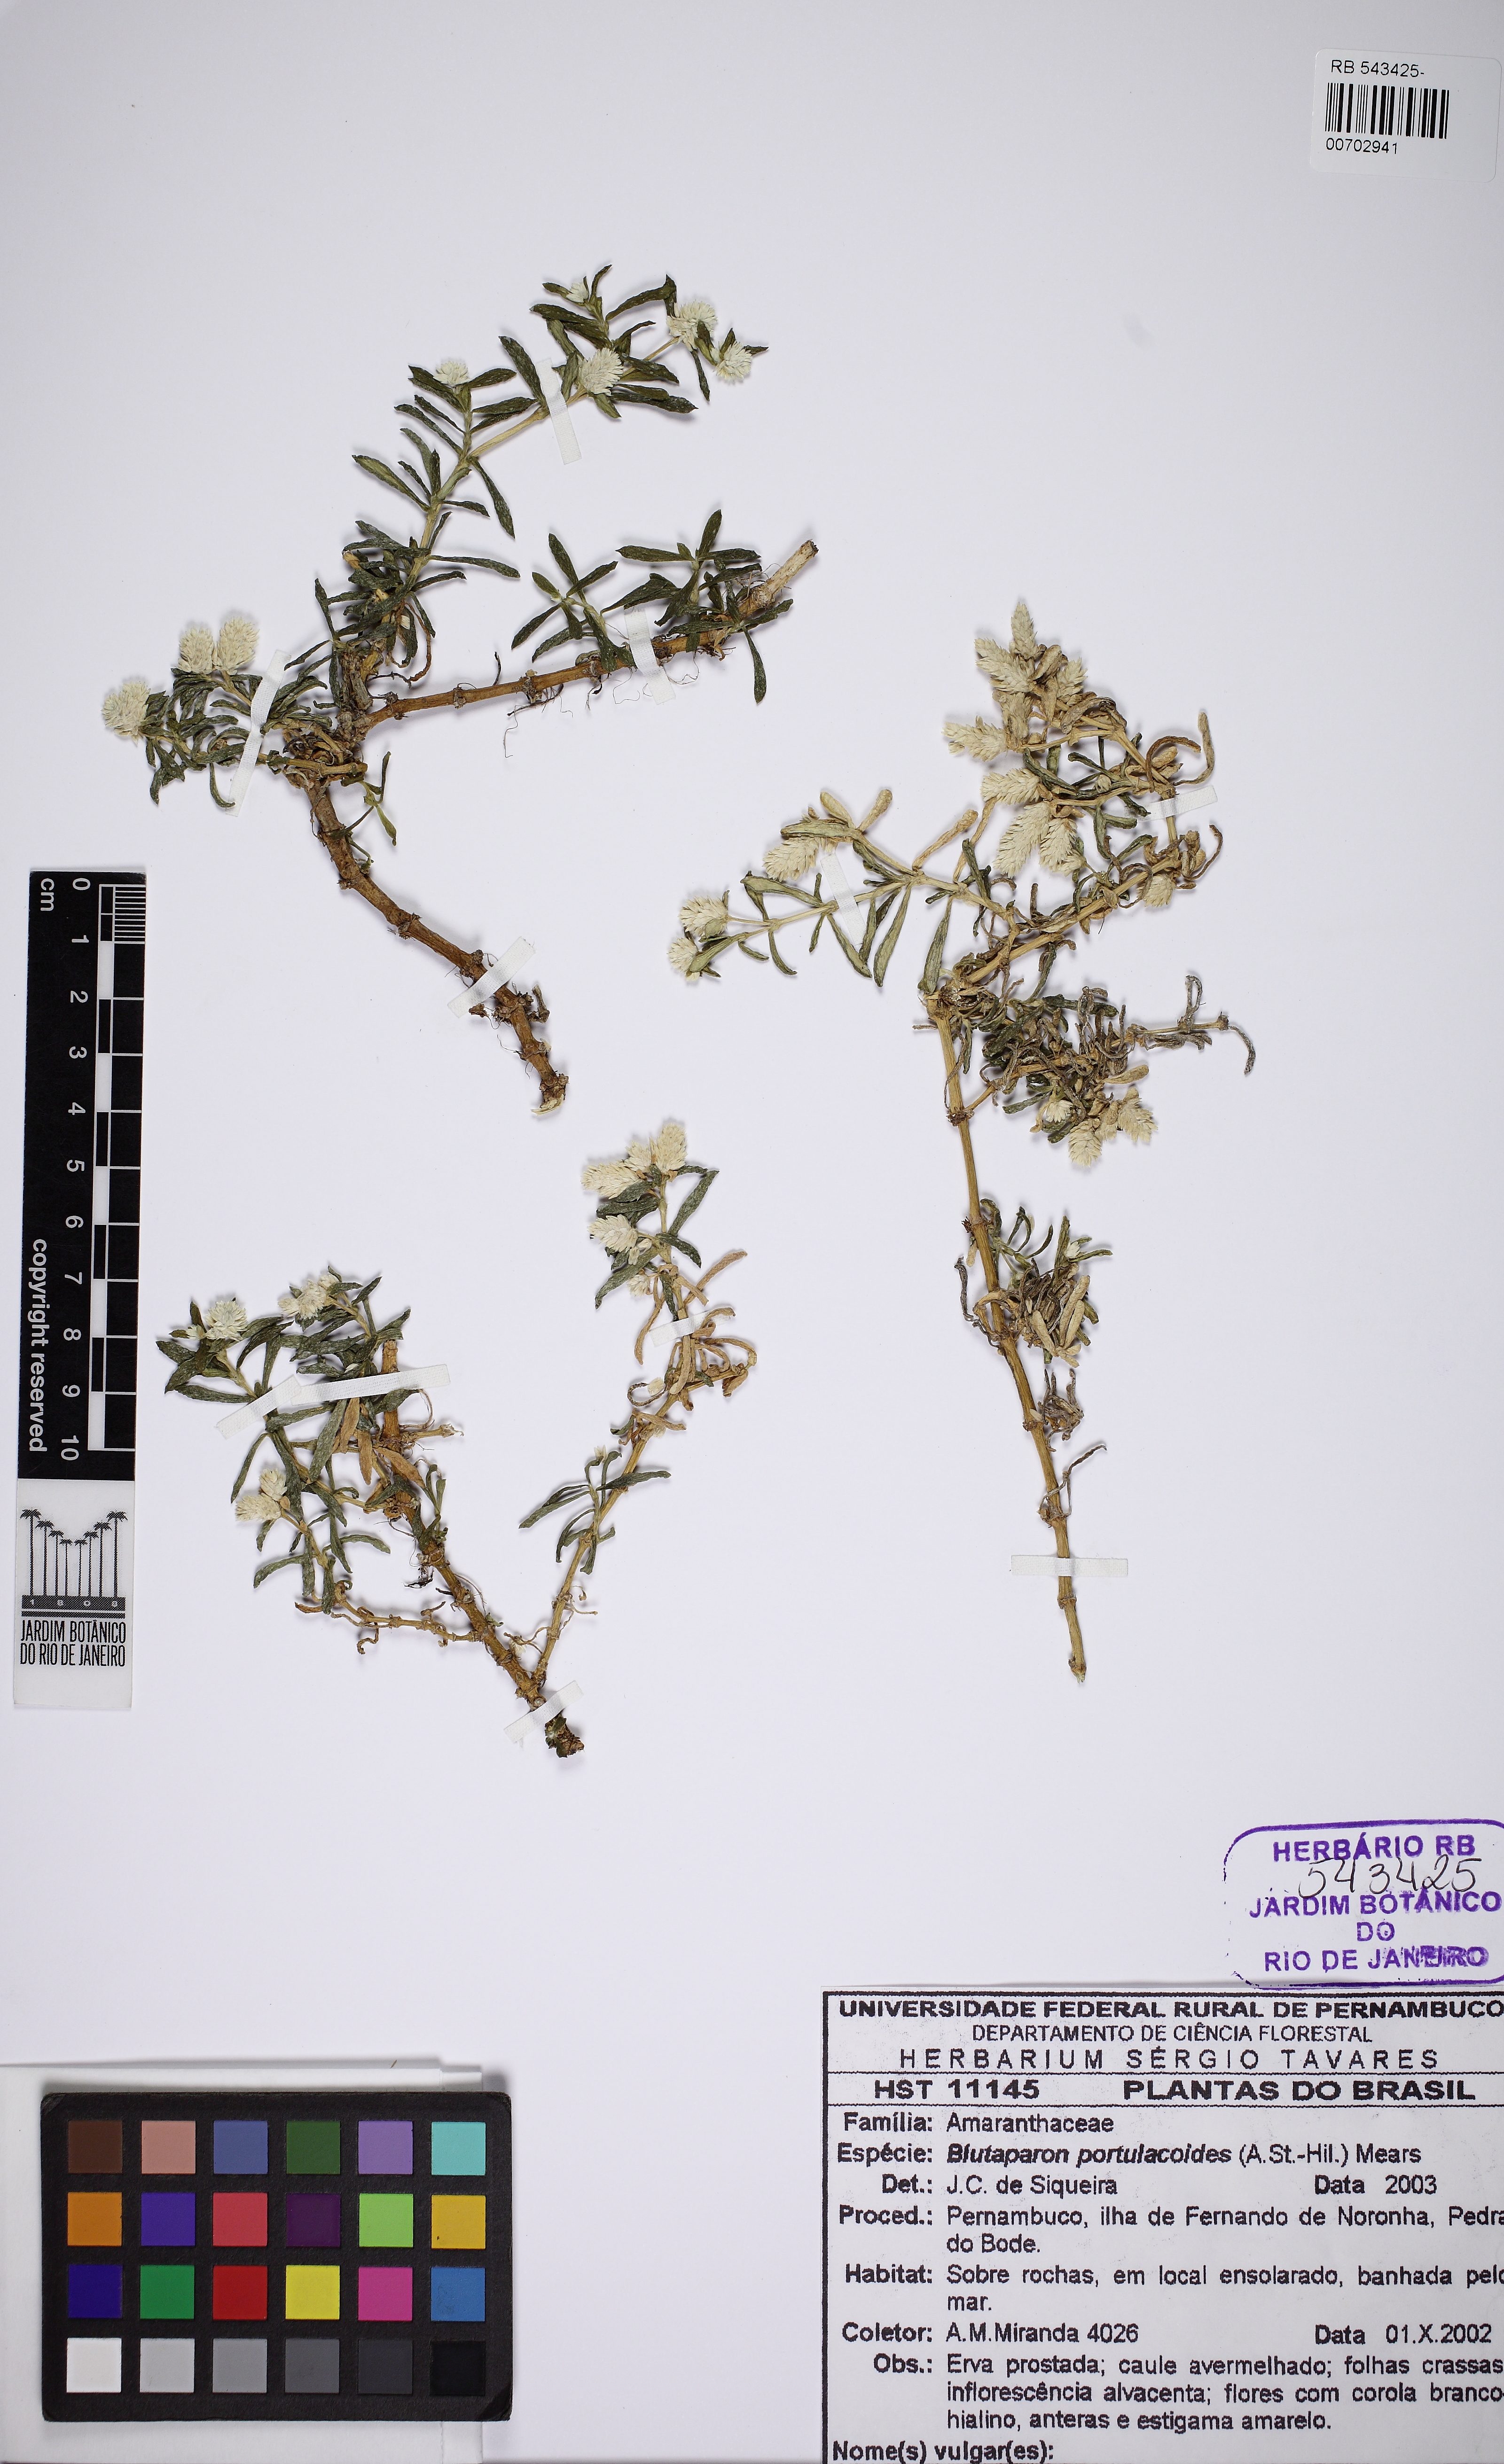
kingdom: Plantae
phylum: Tracheophyta
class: Magnoliopsida
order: Caryophyllales
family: Amaranthaceae
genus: Gomphrena
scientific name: Gomphrena portulacoides
